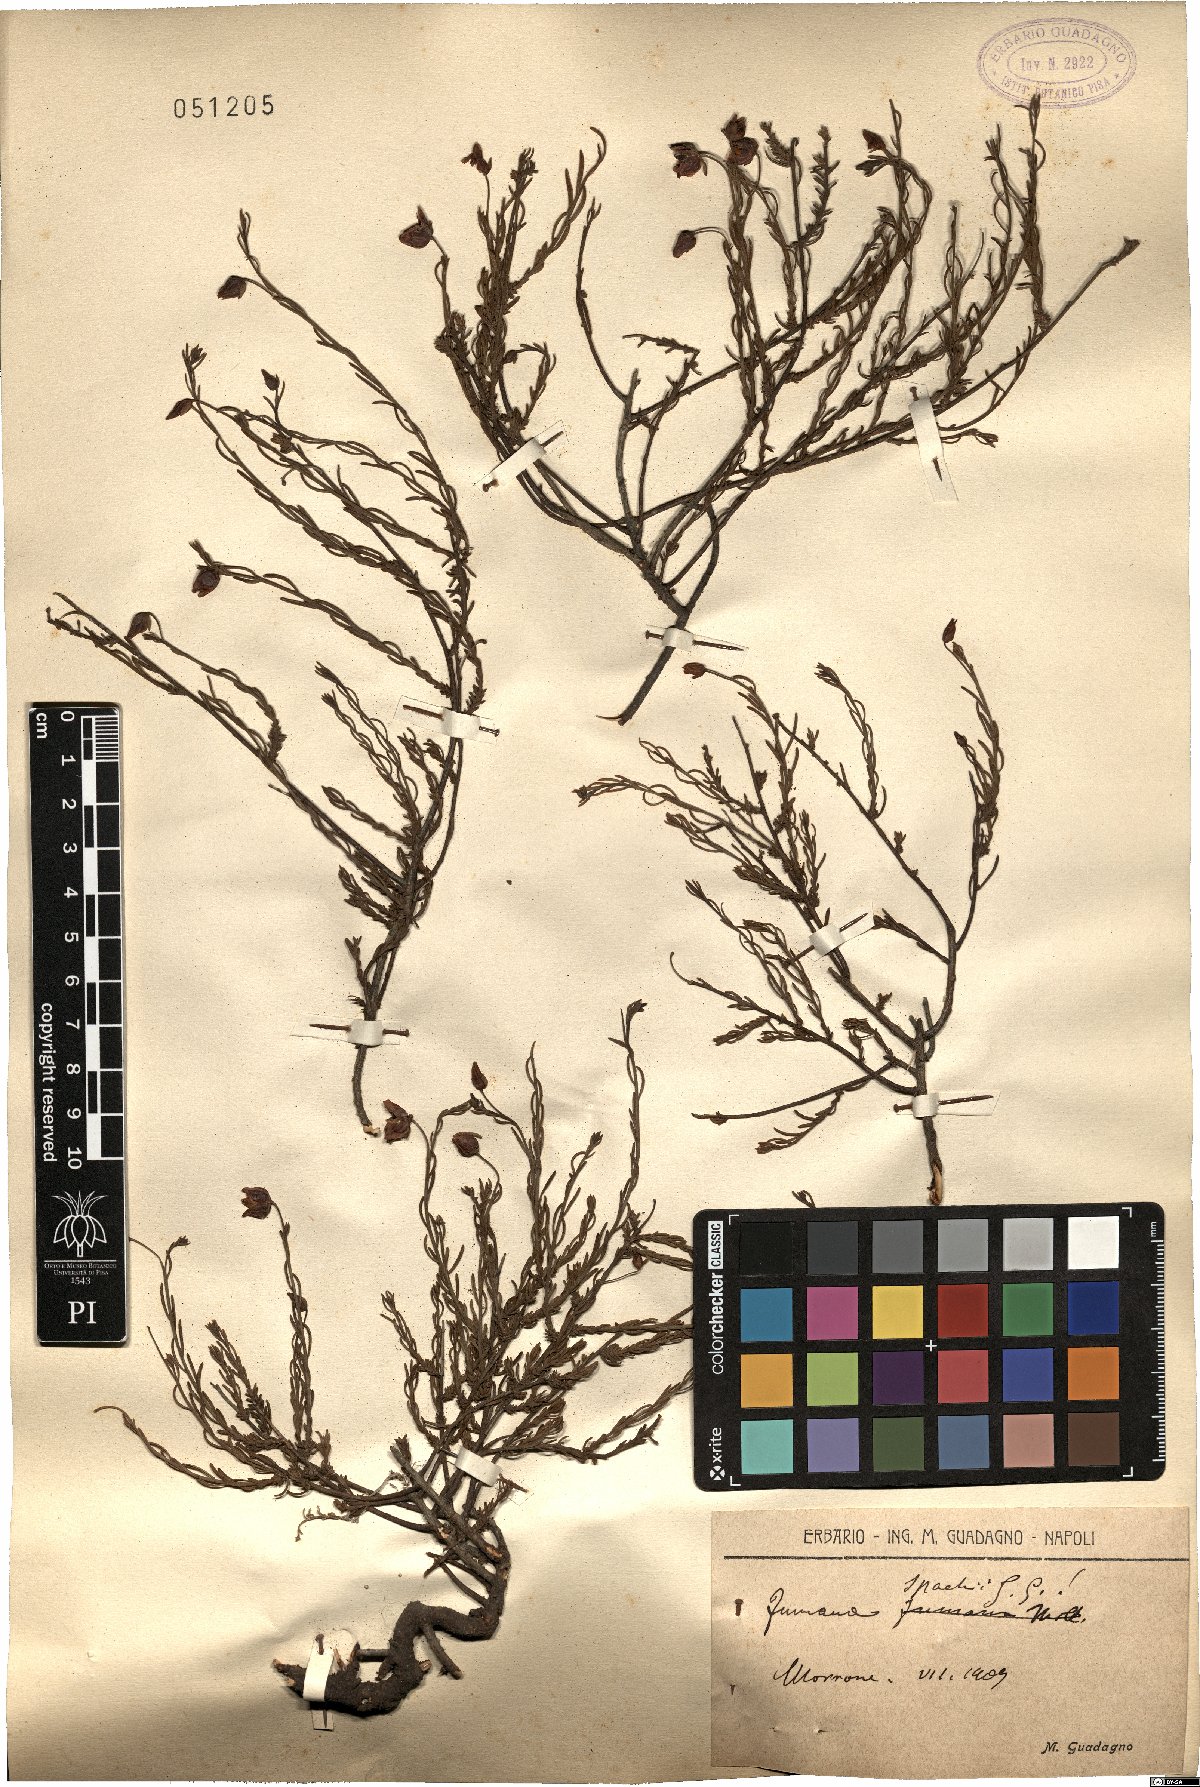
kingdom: Plantae
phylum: Tracheophyta
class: Magnoliopsida
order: Malvales
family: Cistaceae
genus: Fumana
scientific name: Fumana ericifolia
